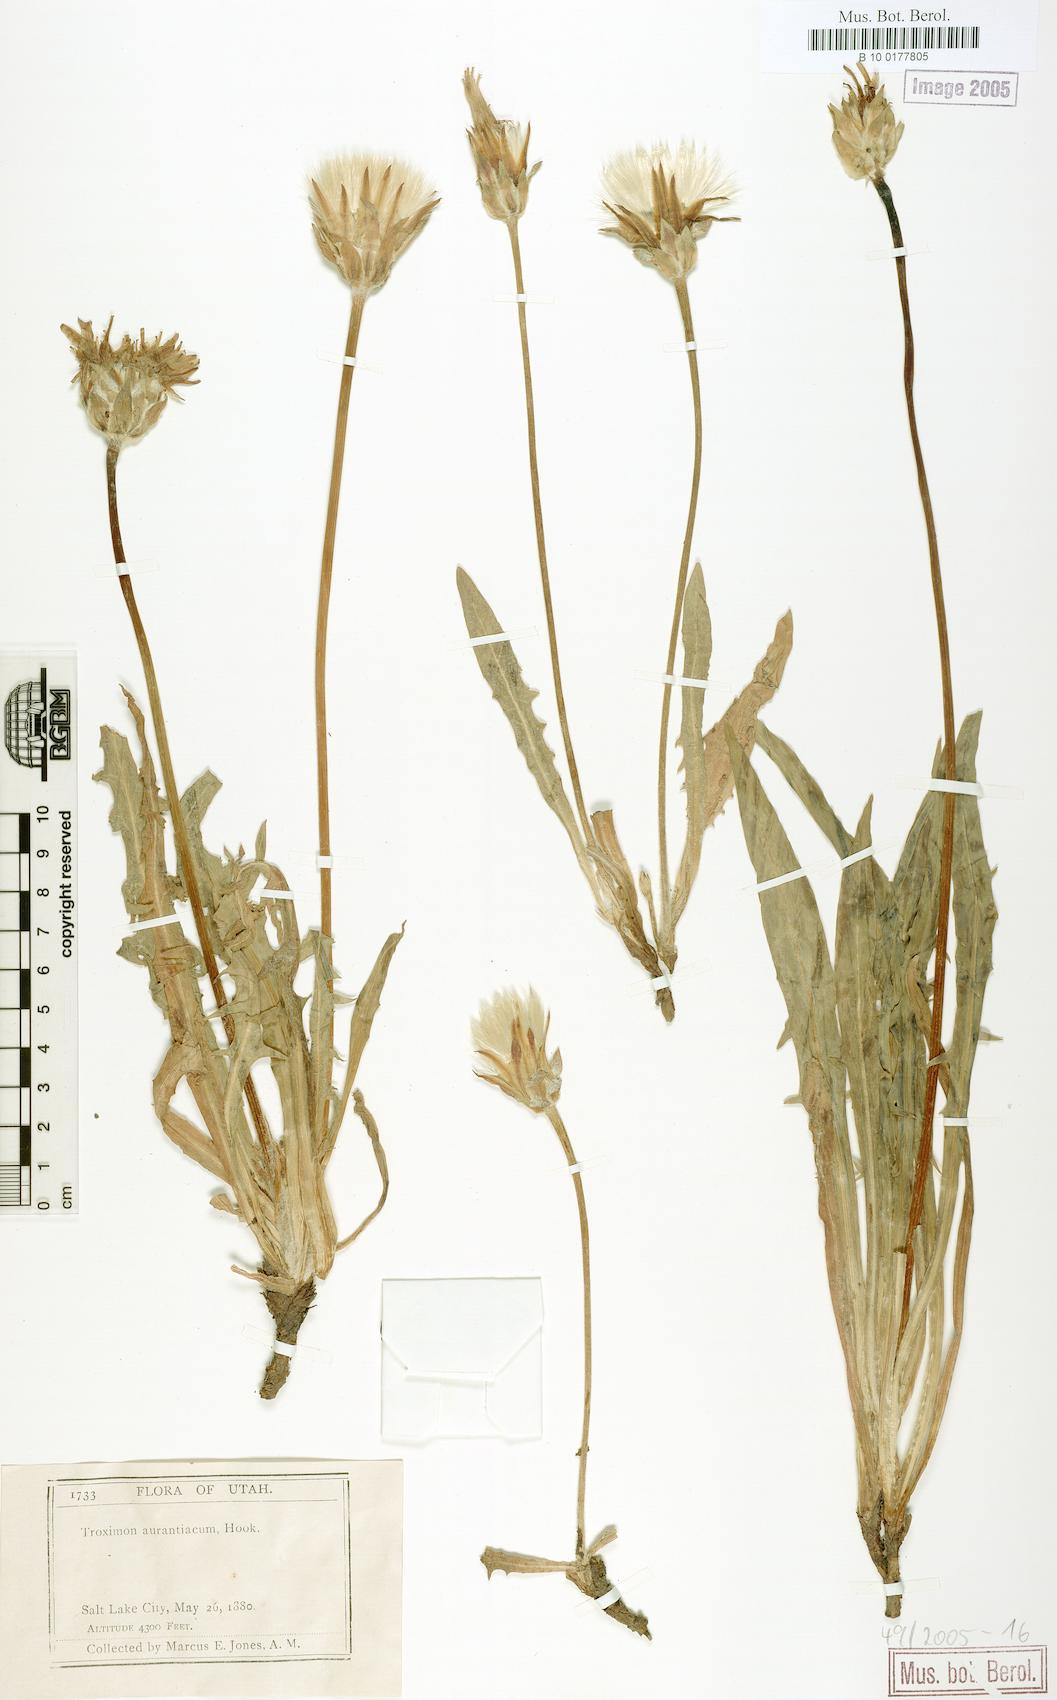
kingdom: Plantae
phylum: Tracheophyta
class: Magnoliopsida
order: Asterales
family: Asteraceae
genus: Agoseris
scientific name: Agoseris aurantiaca
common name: Mountain agoseris
